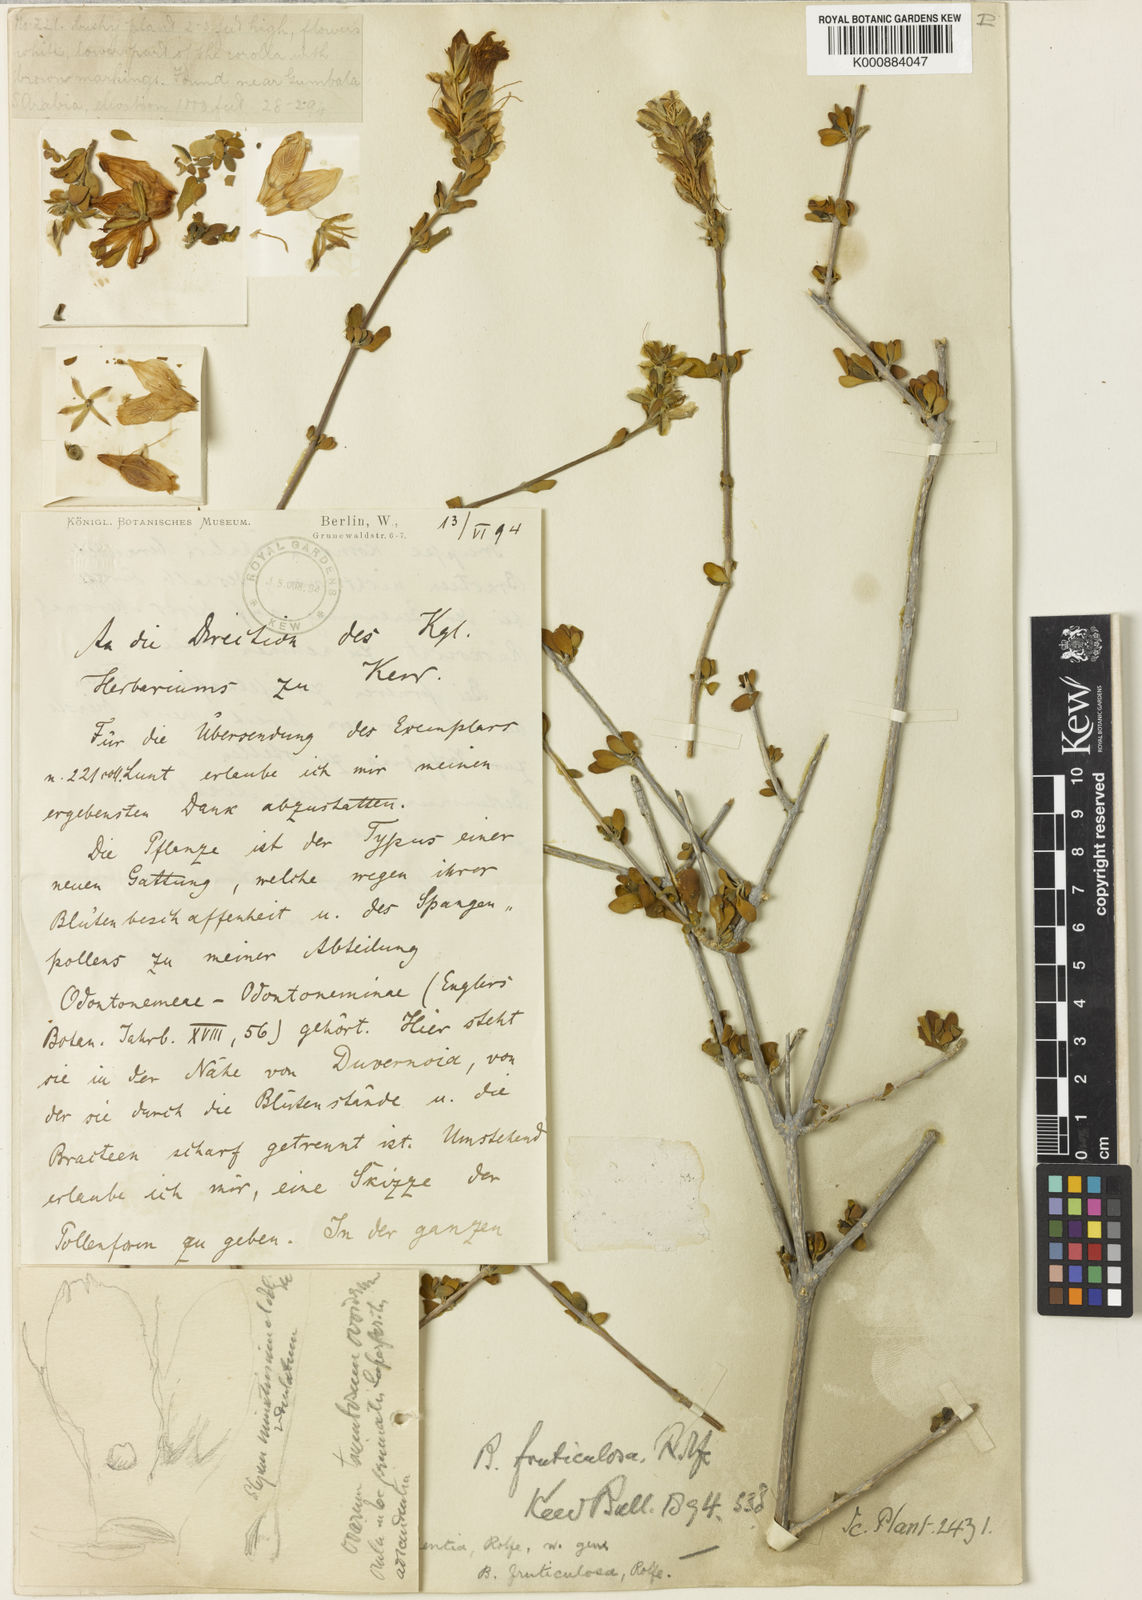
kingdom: Plantae
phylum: Tracheophyta
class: Magnoliopsida
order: Lamiales
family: Acanthaceae
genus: Justicia
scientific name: Justicia areysiana
